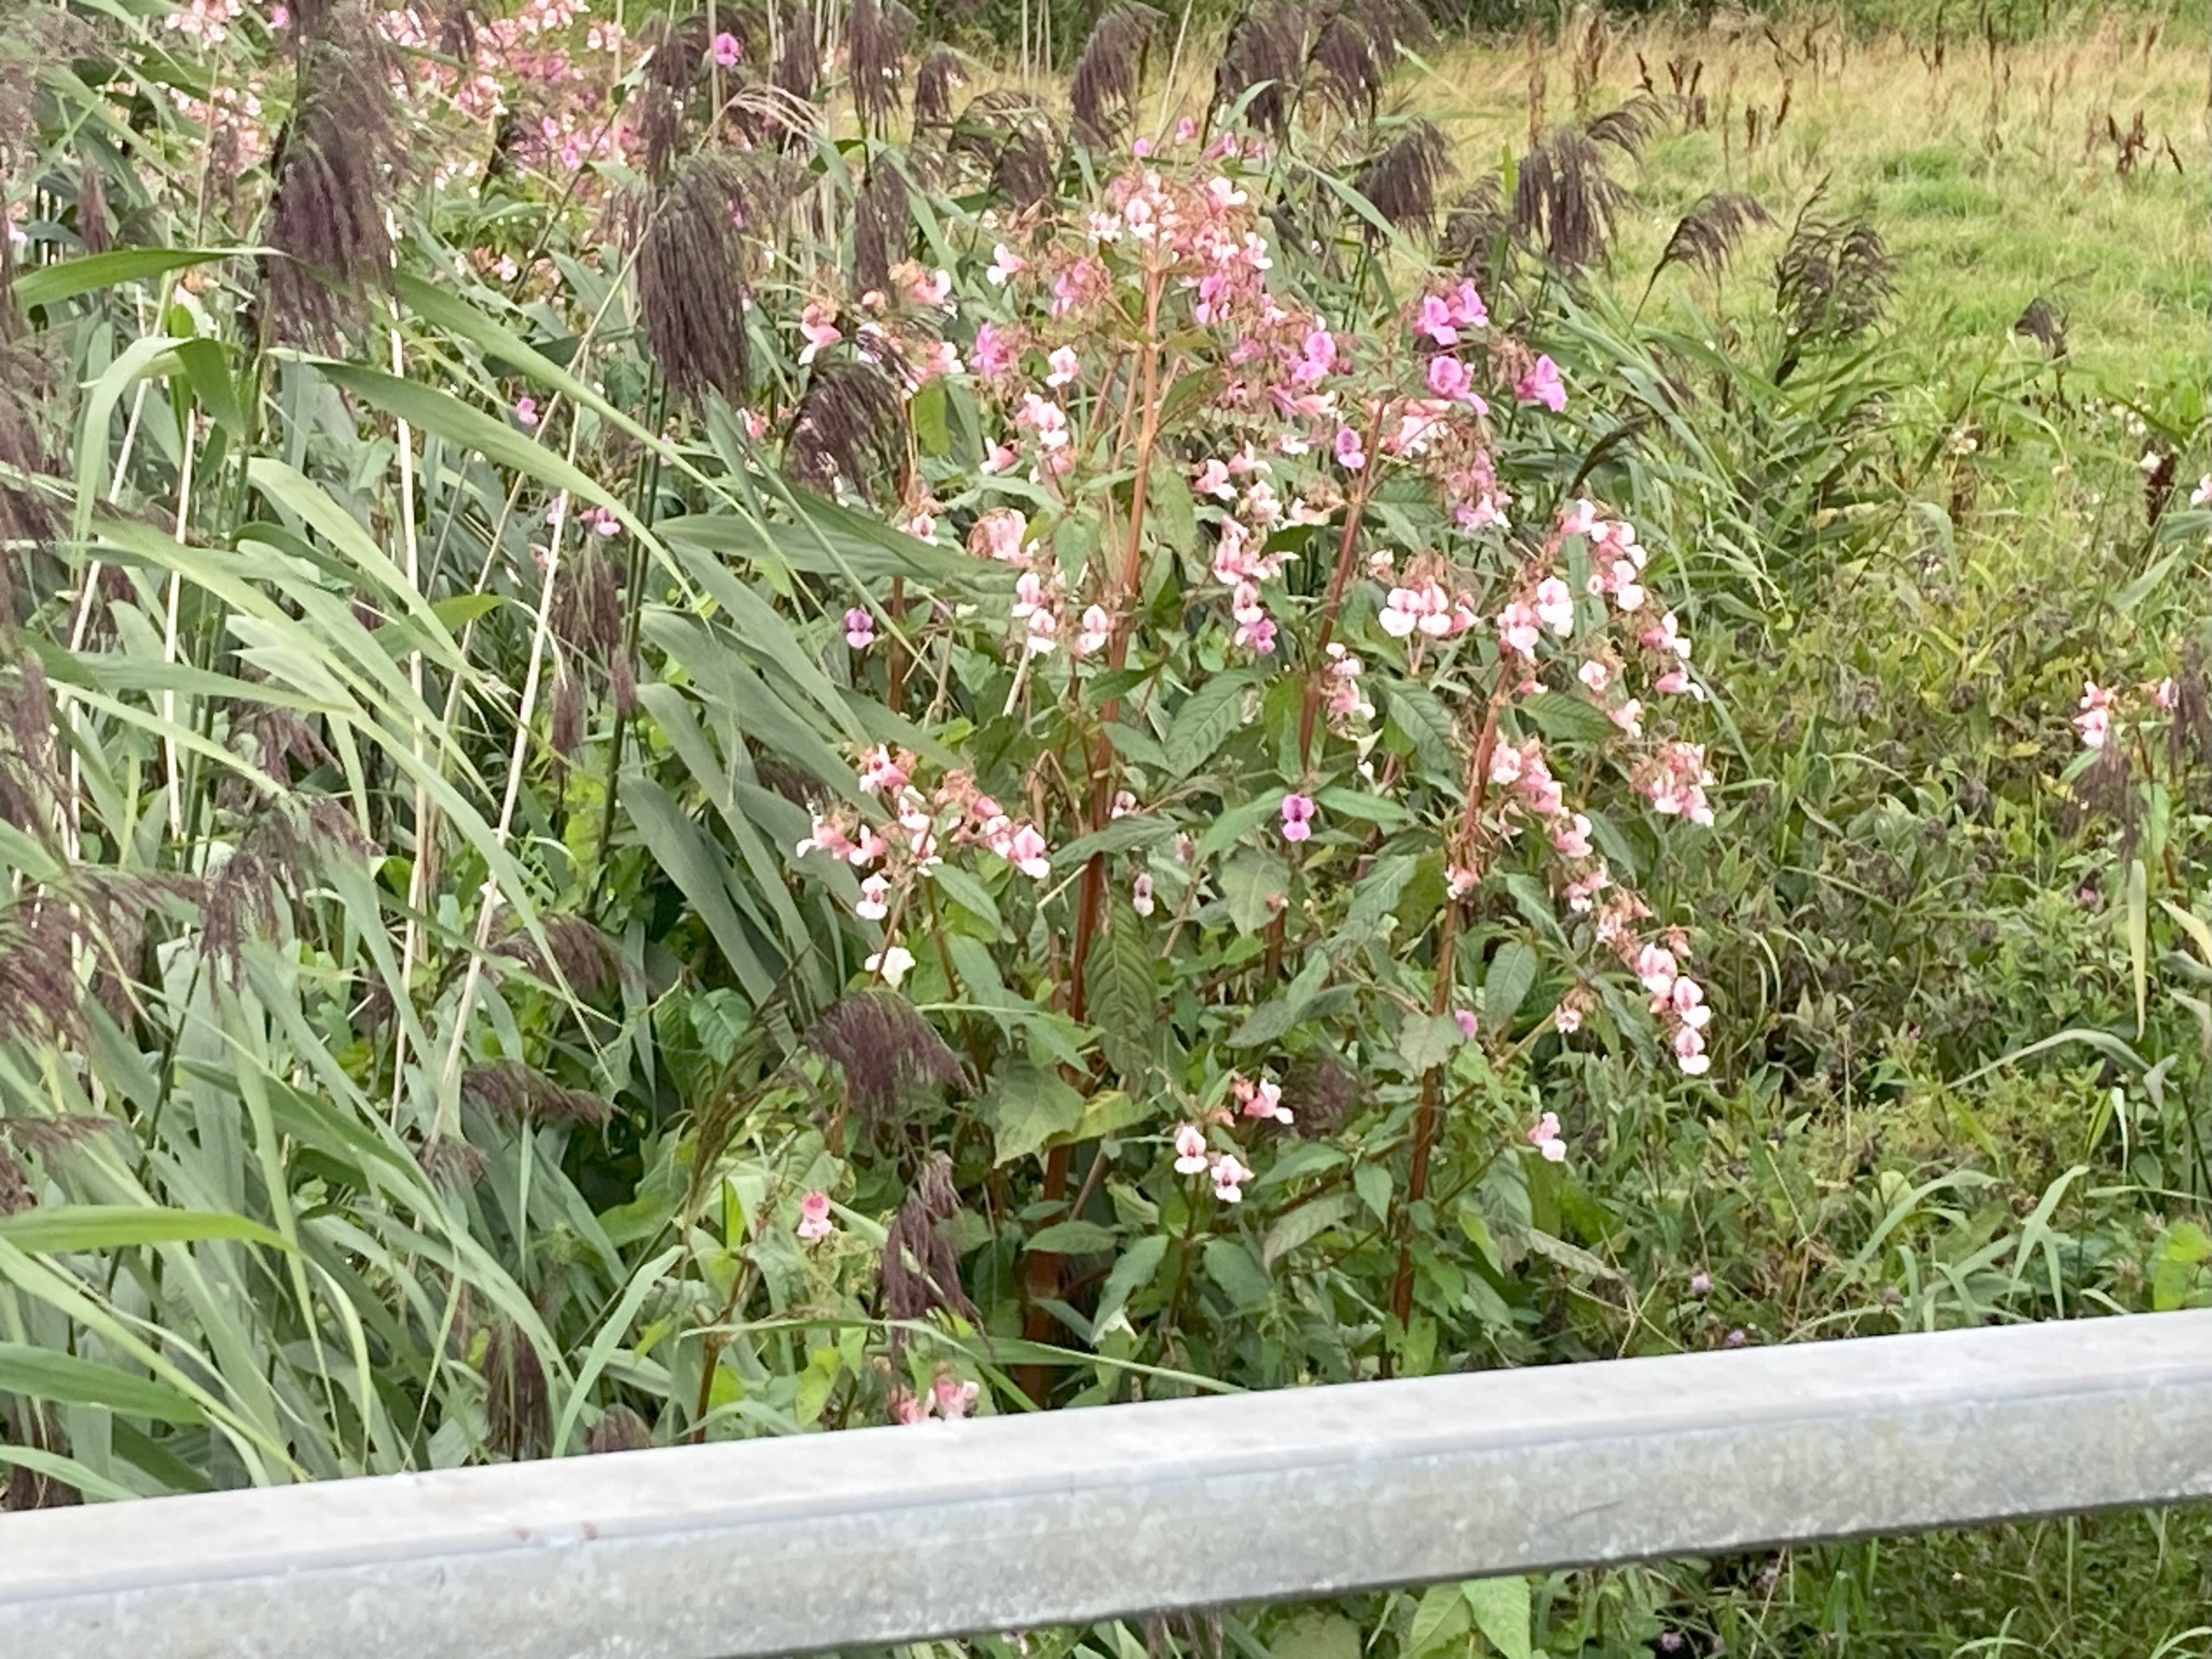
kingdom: Plantae
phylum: Tracheophyta
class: Magnoliopsida
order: Ericales
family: Balsaminaceae
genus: Impatiens
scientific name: Impatiens glandulifera
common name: Kæmpe-balsamin
